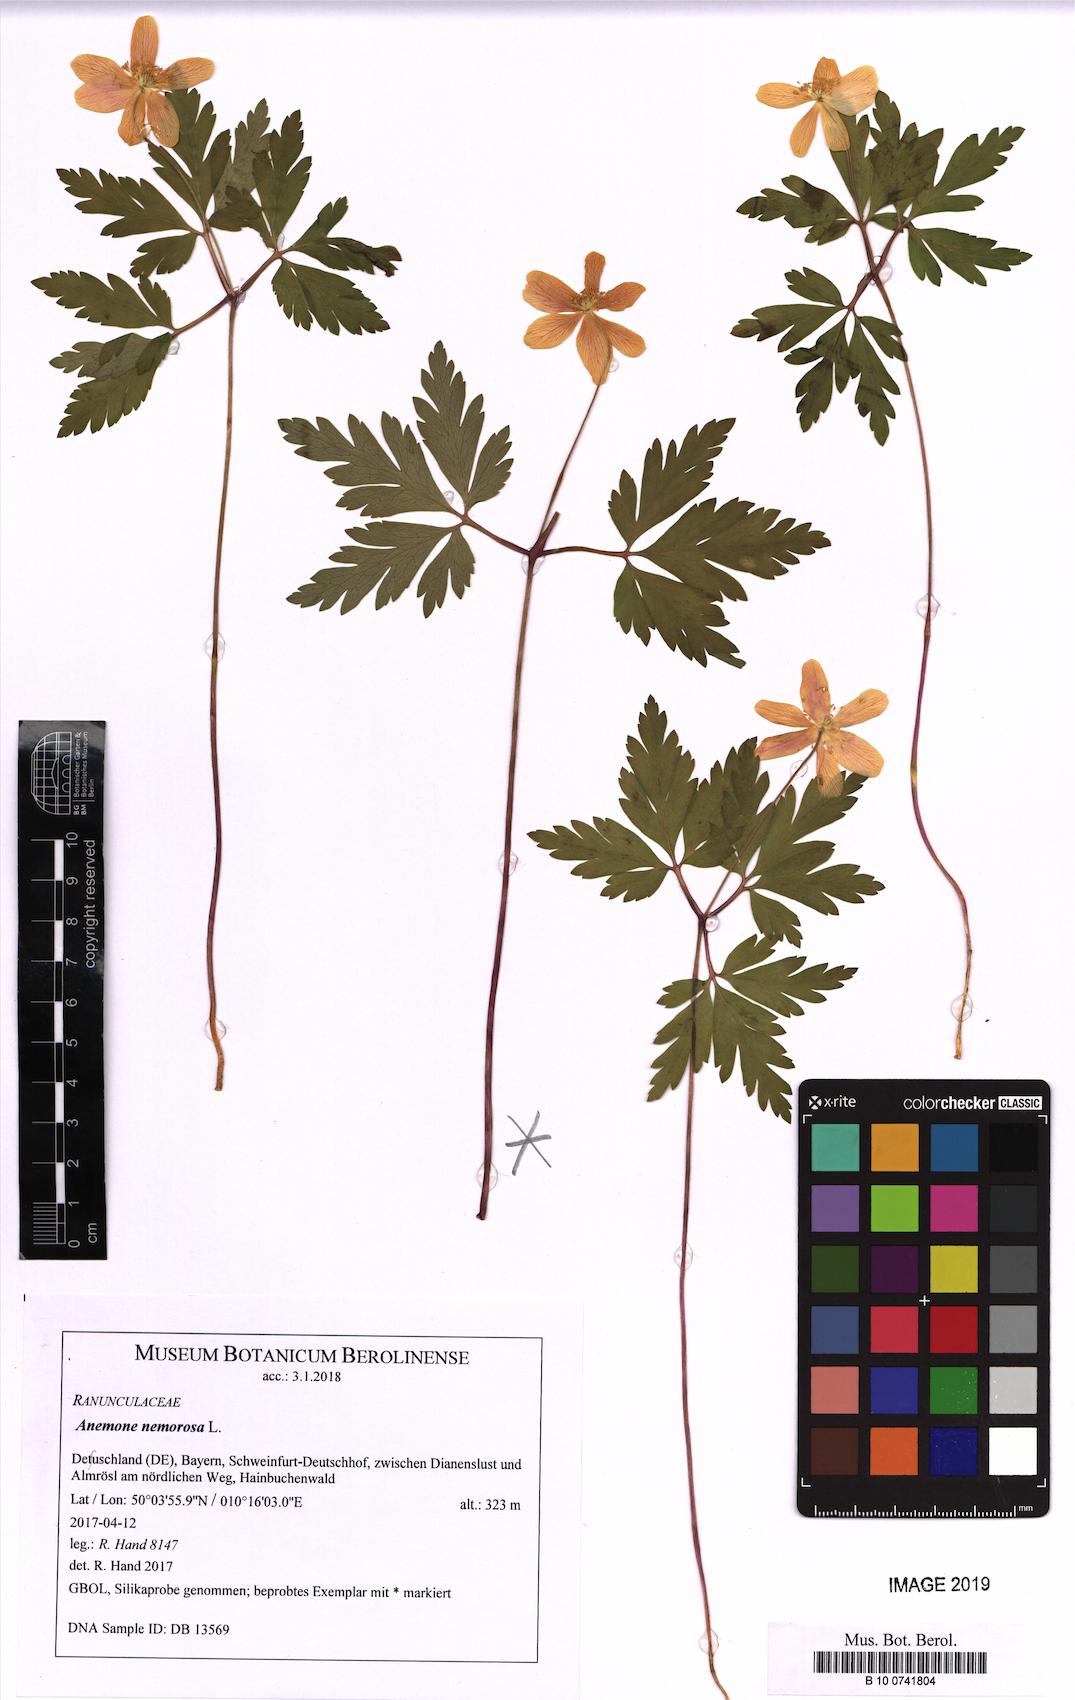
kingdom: Plantae
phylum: Tracheophyta
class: Magnoliopsida
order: Ranunculales
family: Ranunculaceae
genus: Anemone
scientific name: Anemone nemorosa
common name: Wood anemone
